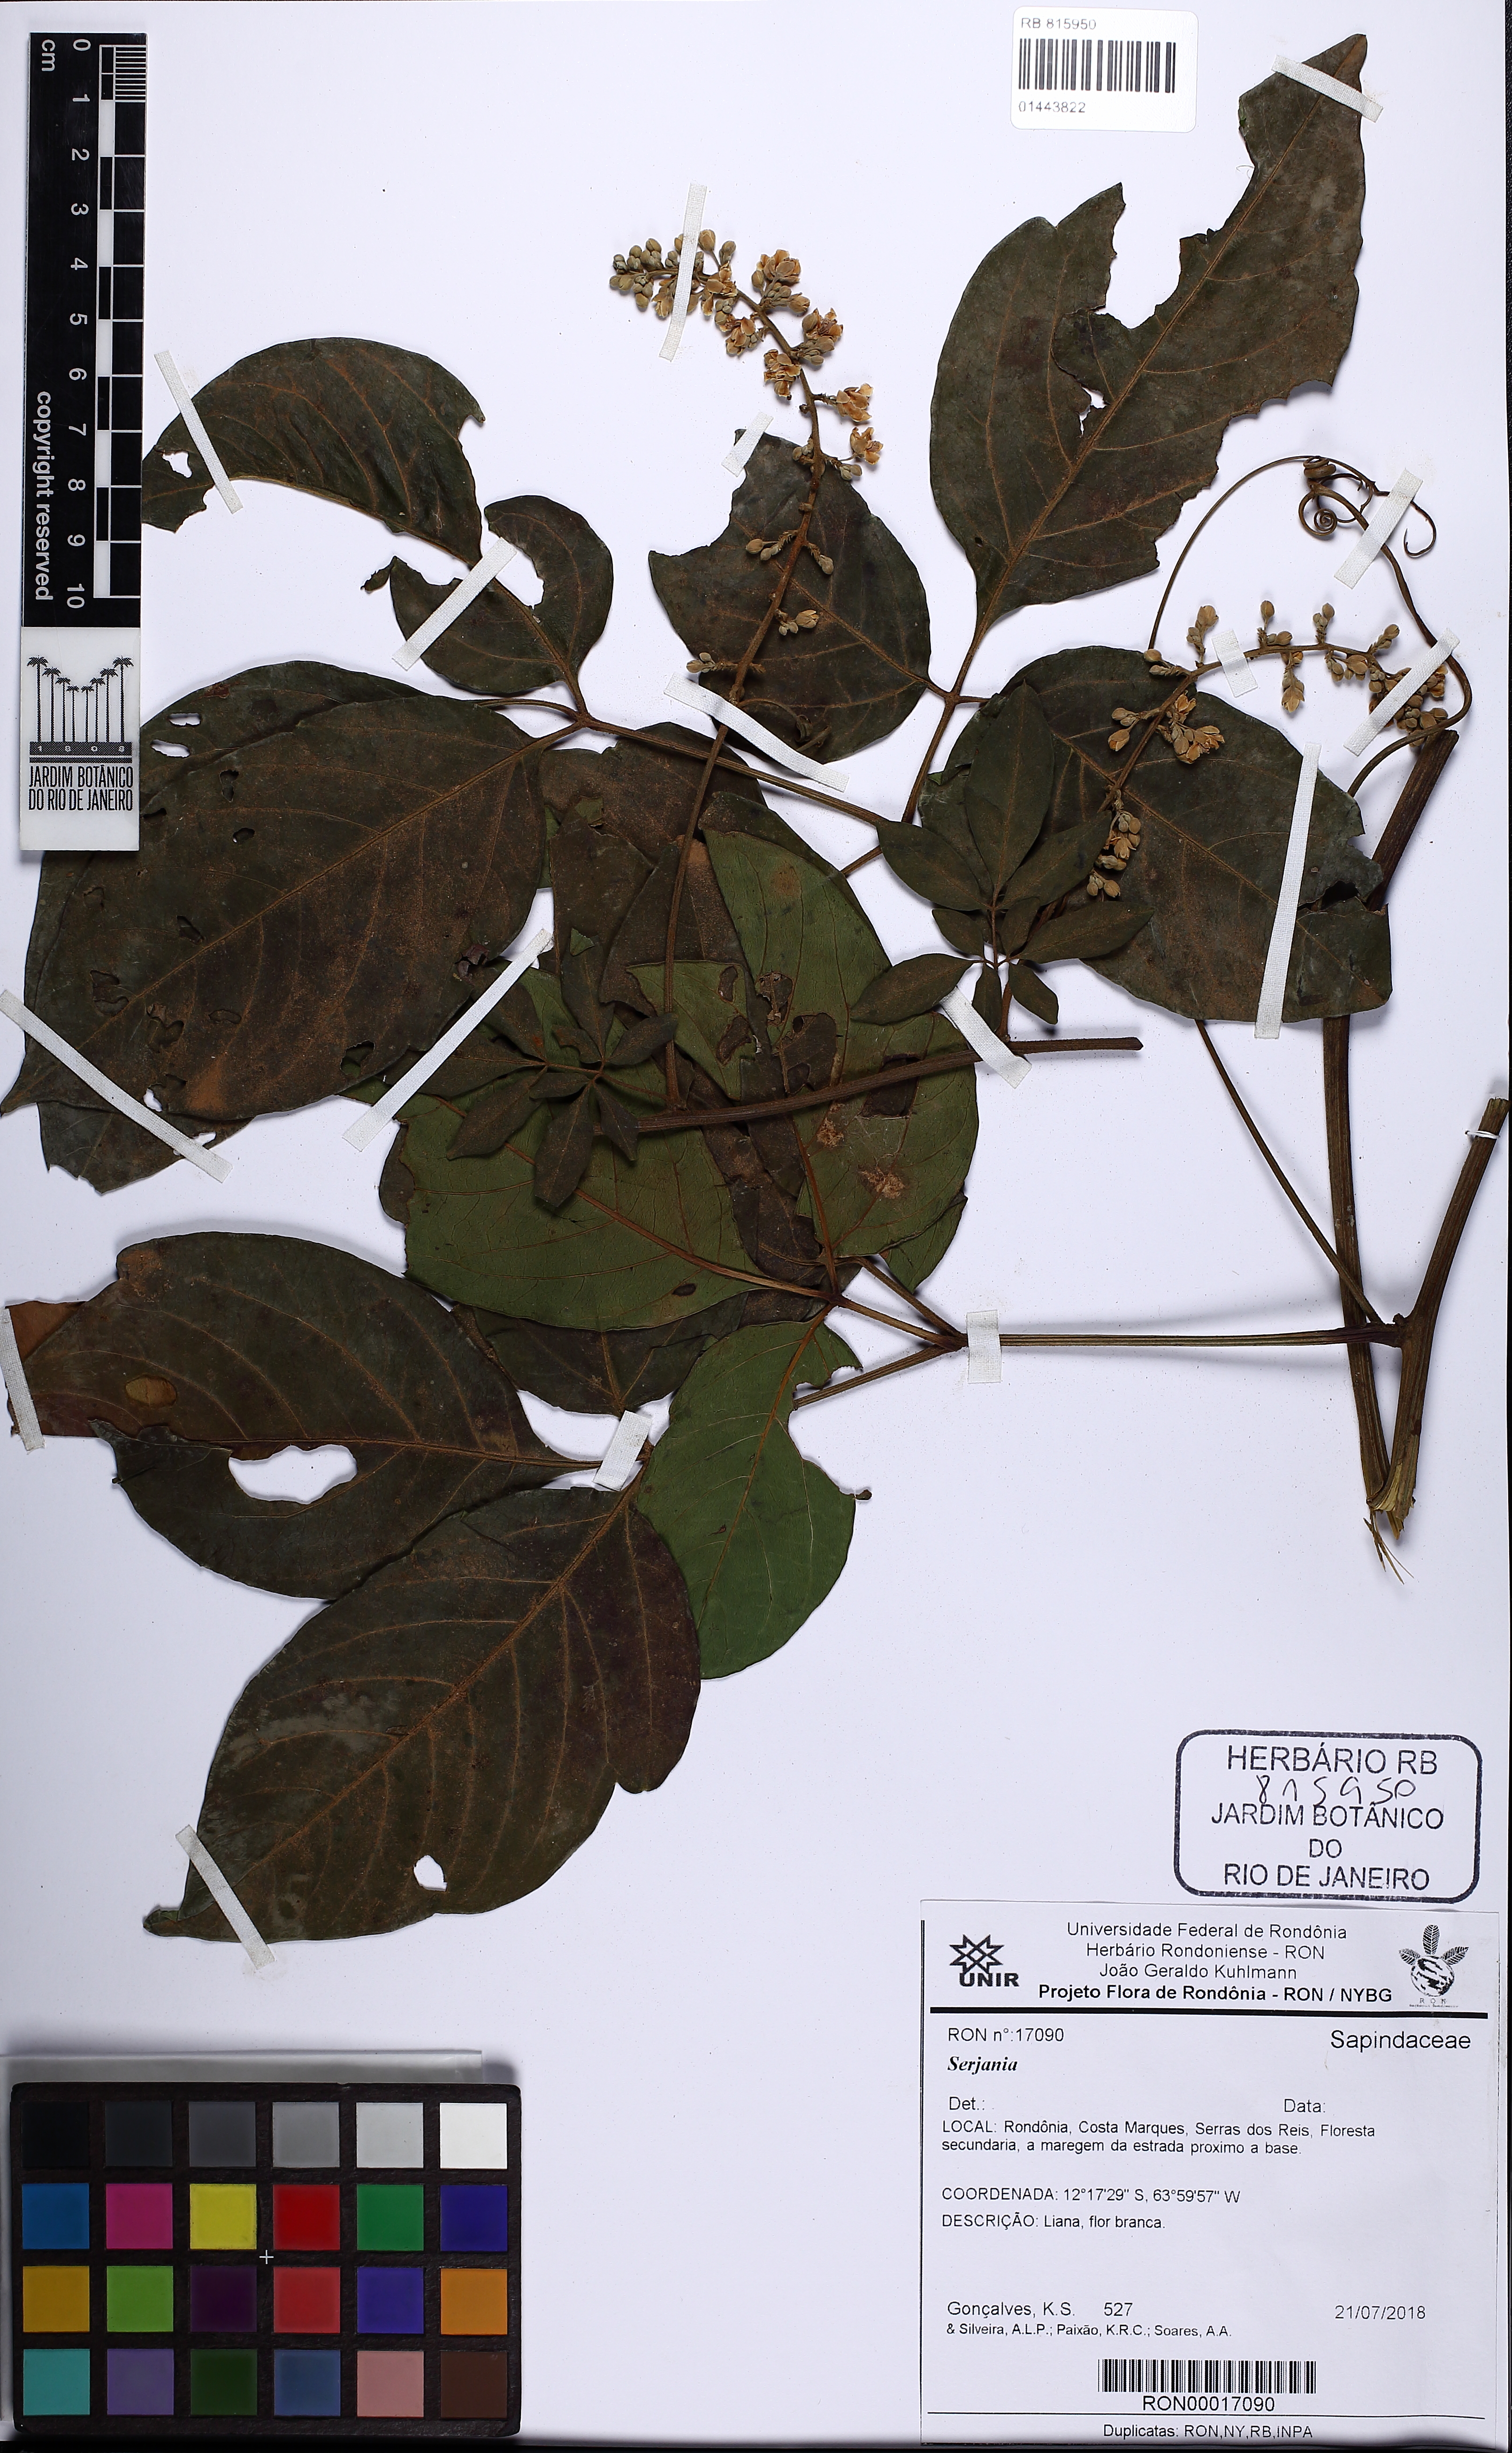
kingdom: Plantae
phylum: Tracheophyta
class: Magnoliopsida
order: Sapindales
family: Sapindaceae
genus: Serjania
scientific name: Serjania
